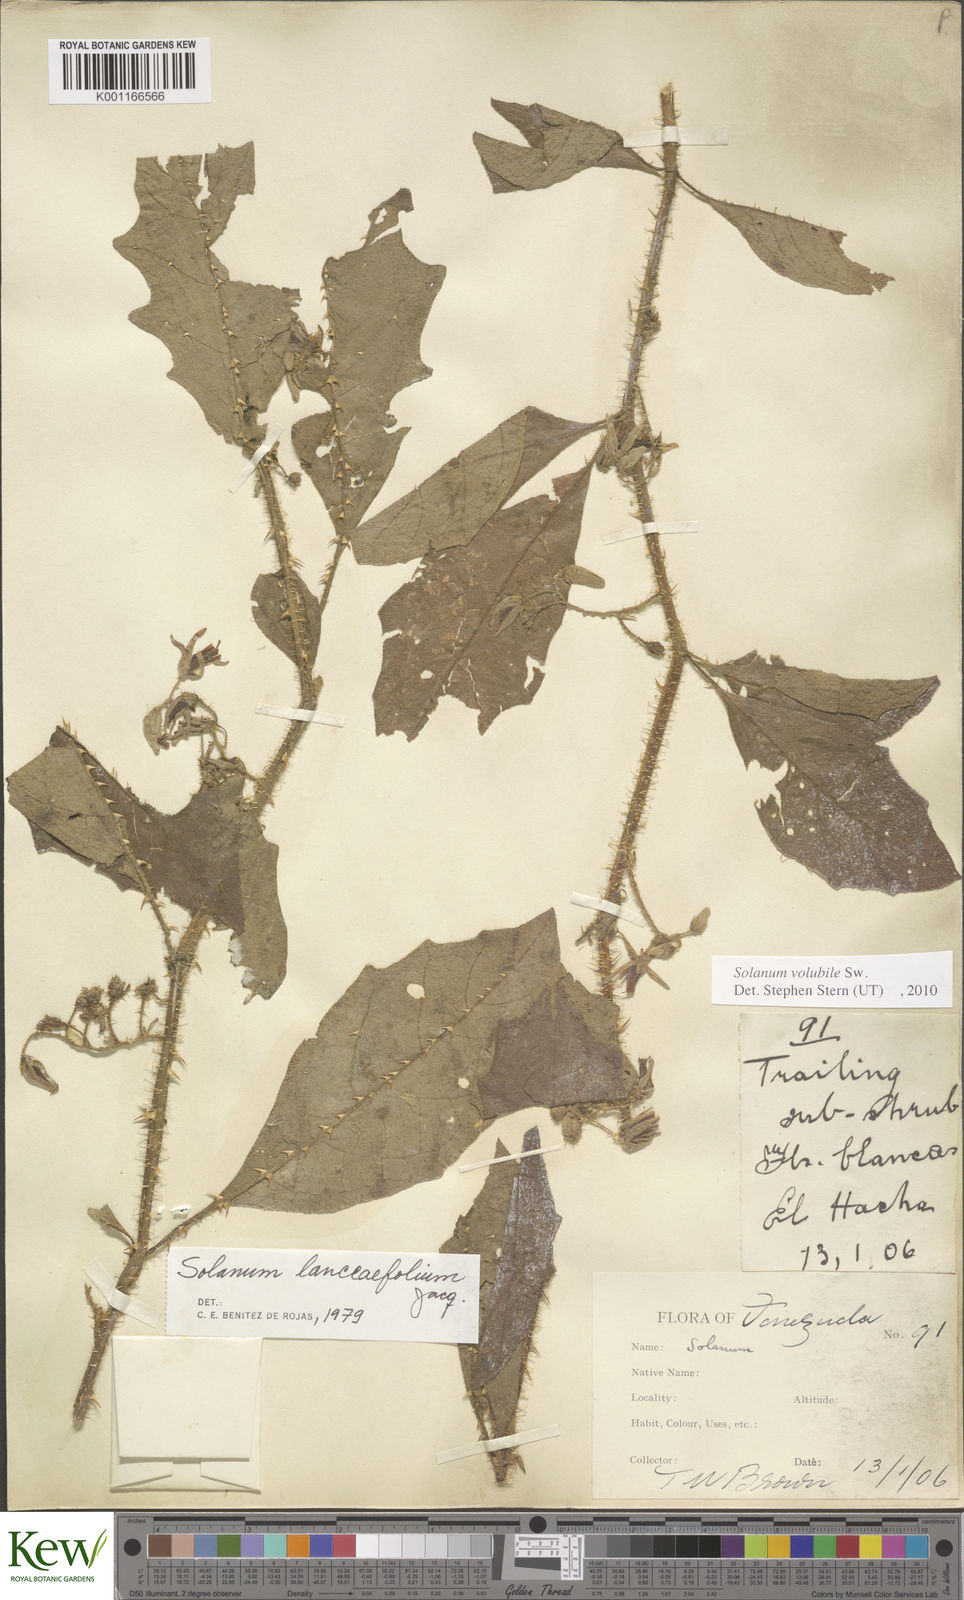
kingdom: Plantae
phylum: Tracheophyta
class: Magnoliopsida
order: Solanales
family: Solanaceae
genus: Solanum
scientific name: Solanum volubile
